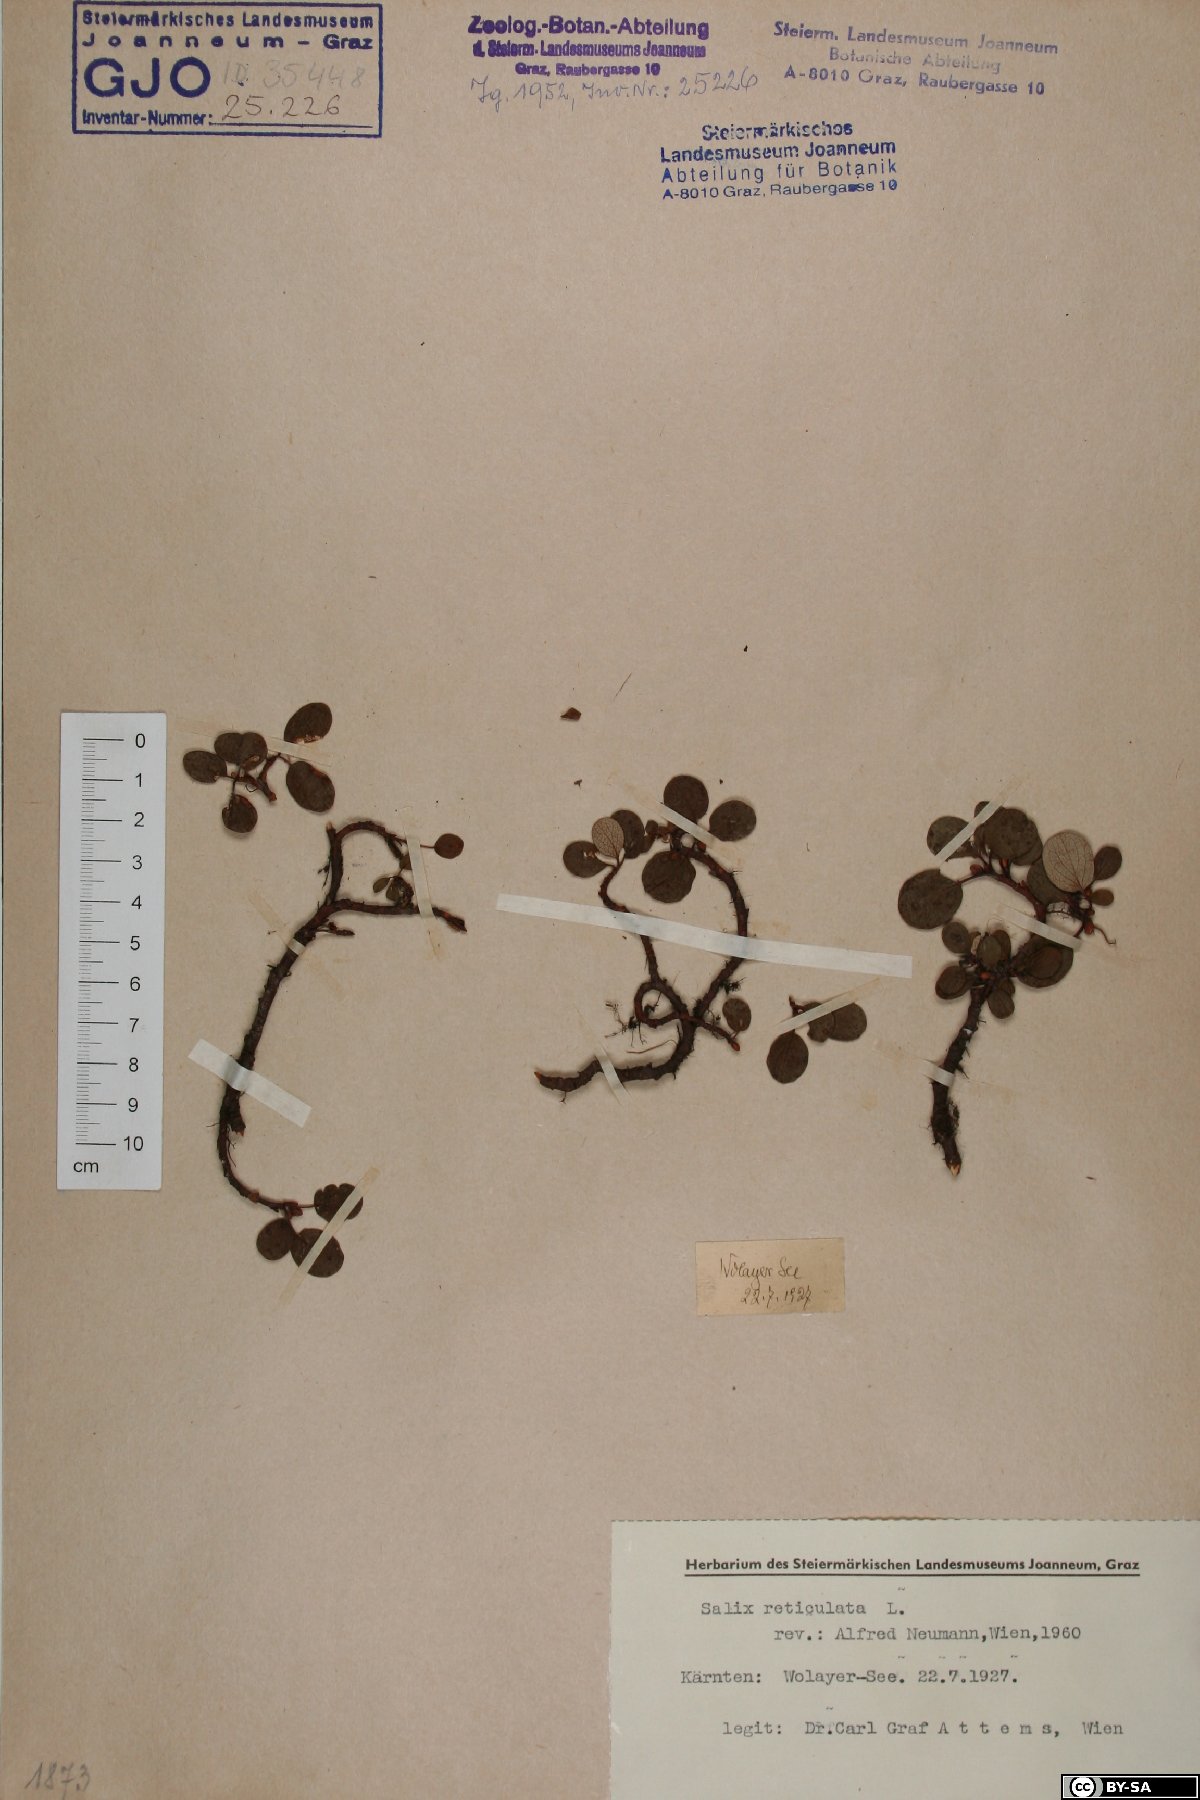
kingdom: Plantae
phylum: Tracheophyta
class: Magnoliopsida
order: Malpighiales
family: Salicaceae
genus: Salix
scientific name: Salix reticulata
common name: Net-leaved willow
